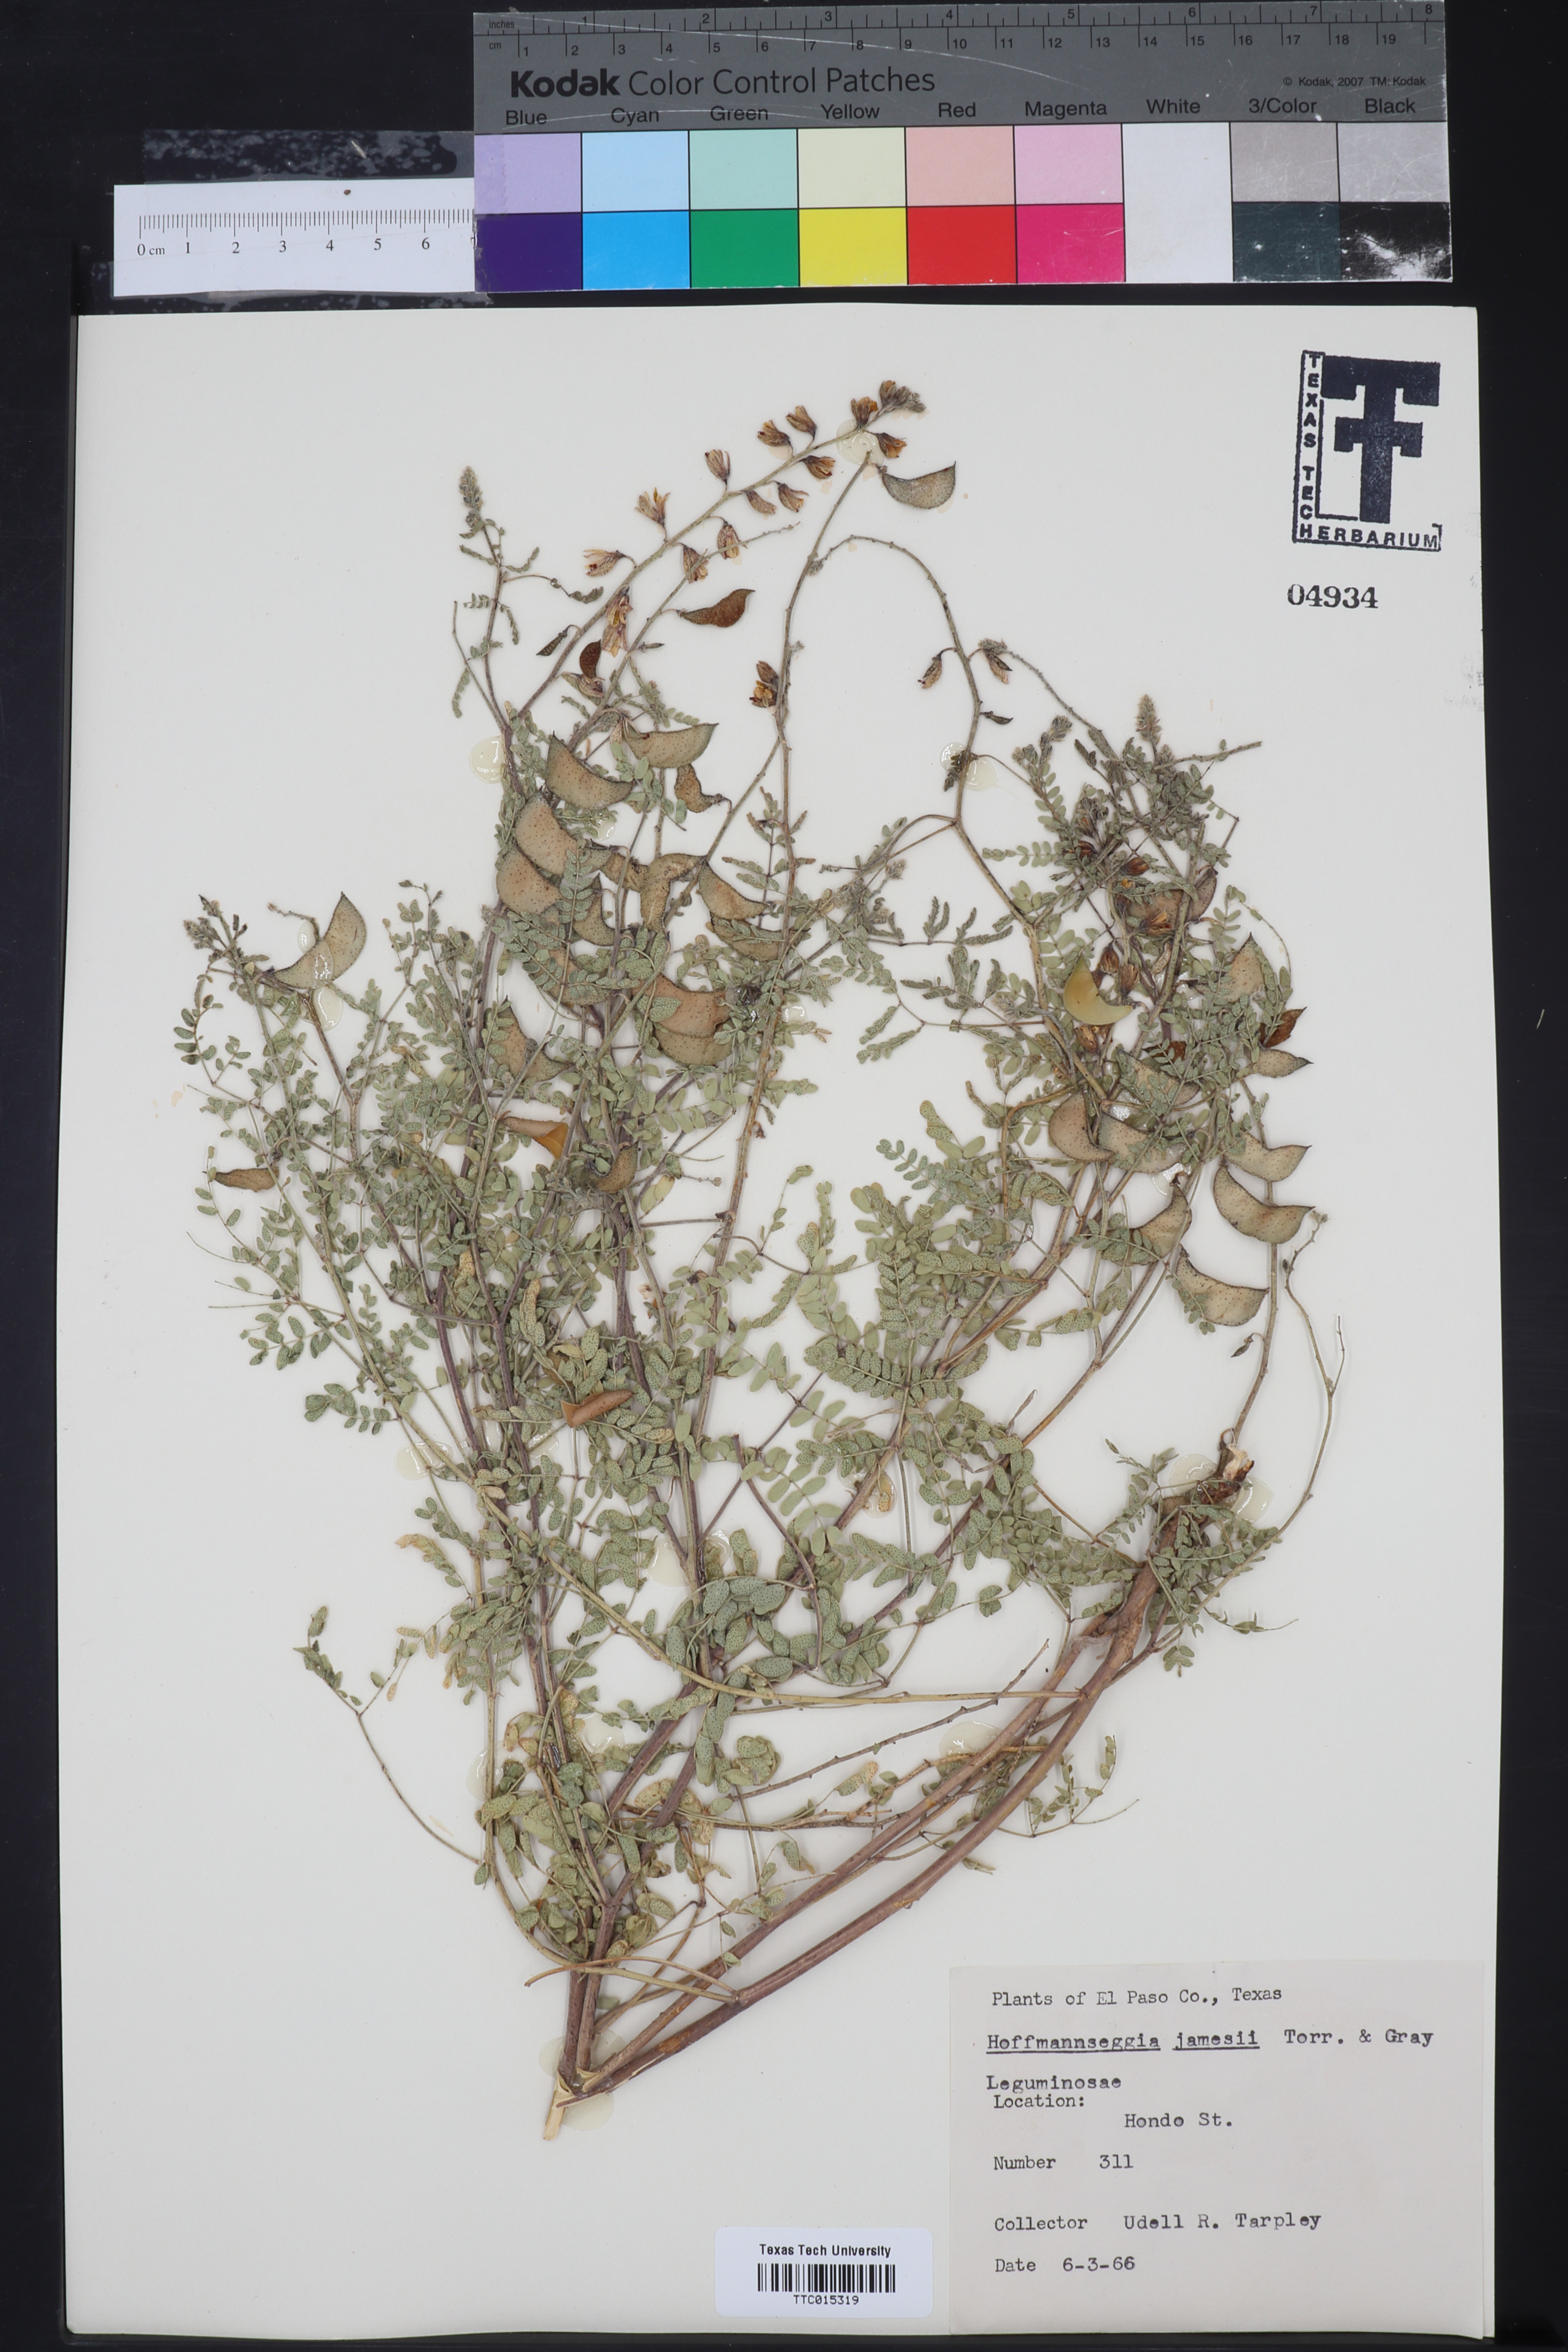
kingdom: Plantae
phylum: Tracheophyta
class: Magnoliopsida
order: Fabales
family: Fabaceae
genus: Pomaria
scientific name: Pomaria jamesii
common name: James' caesalpinia
